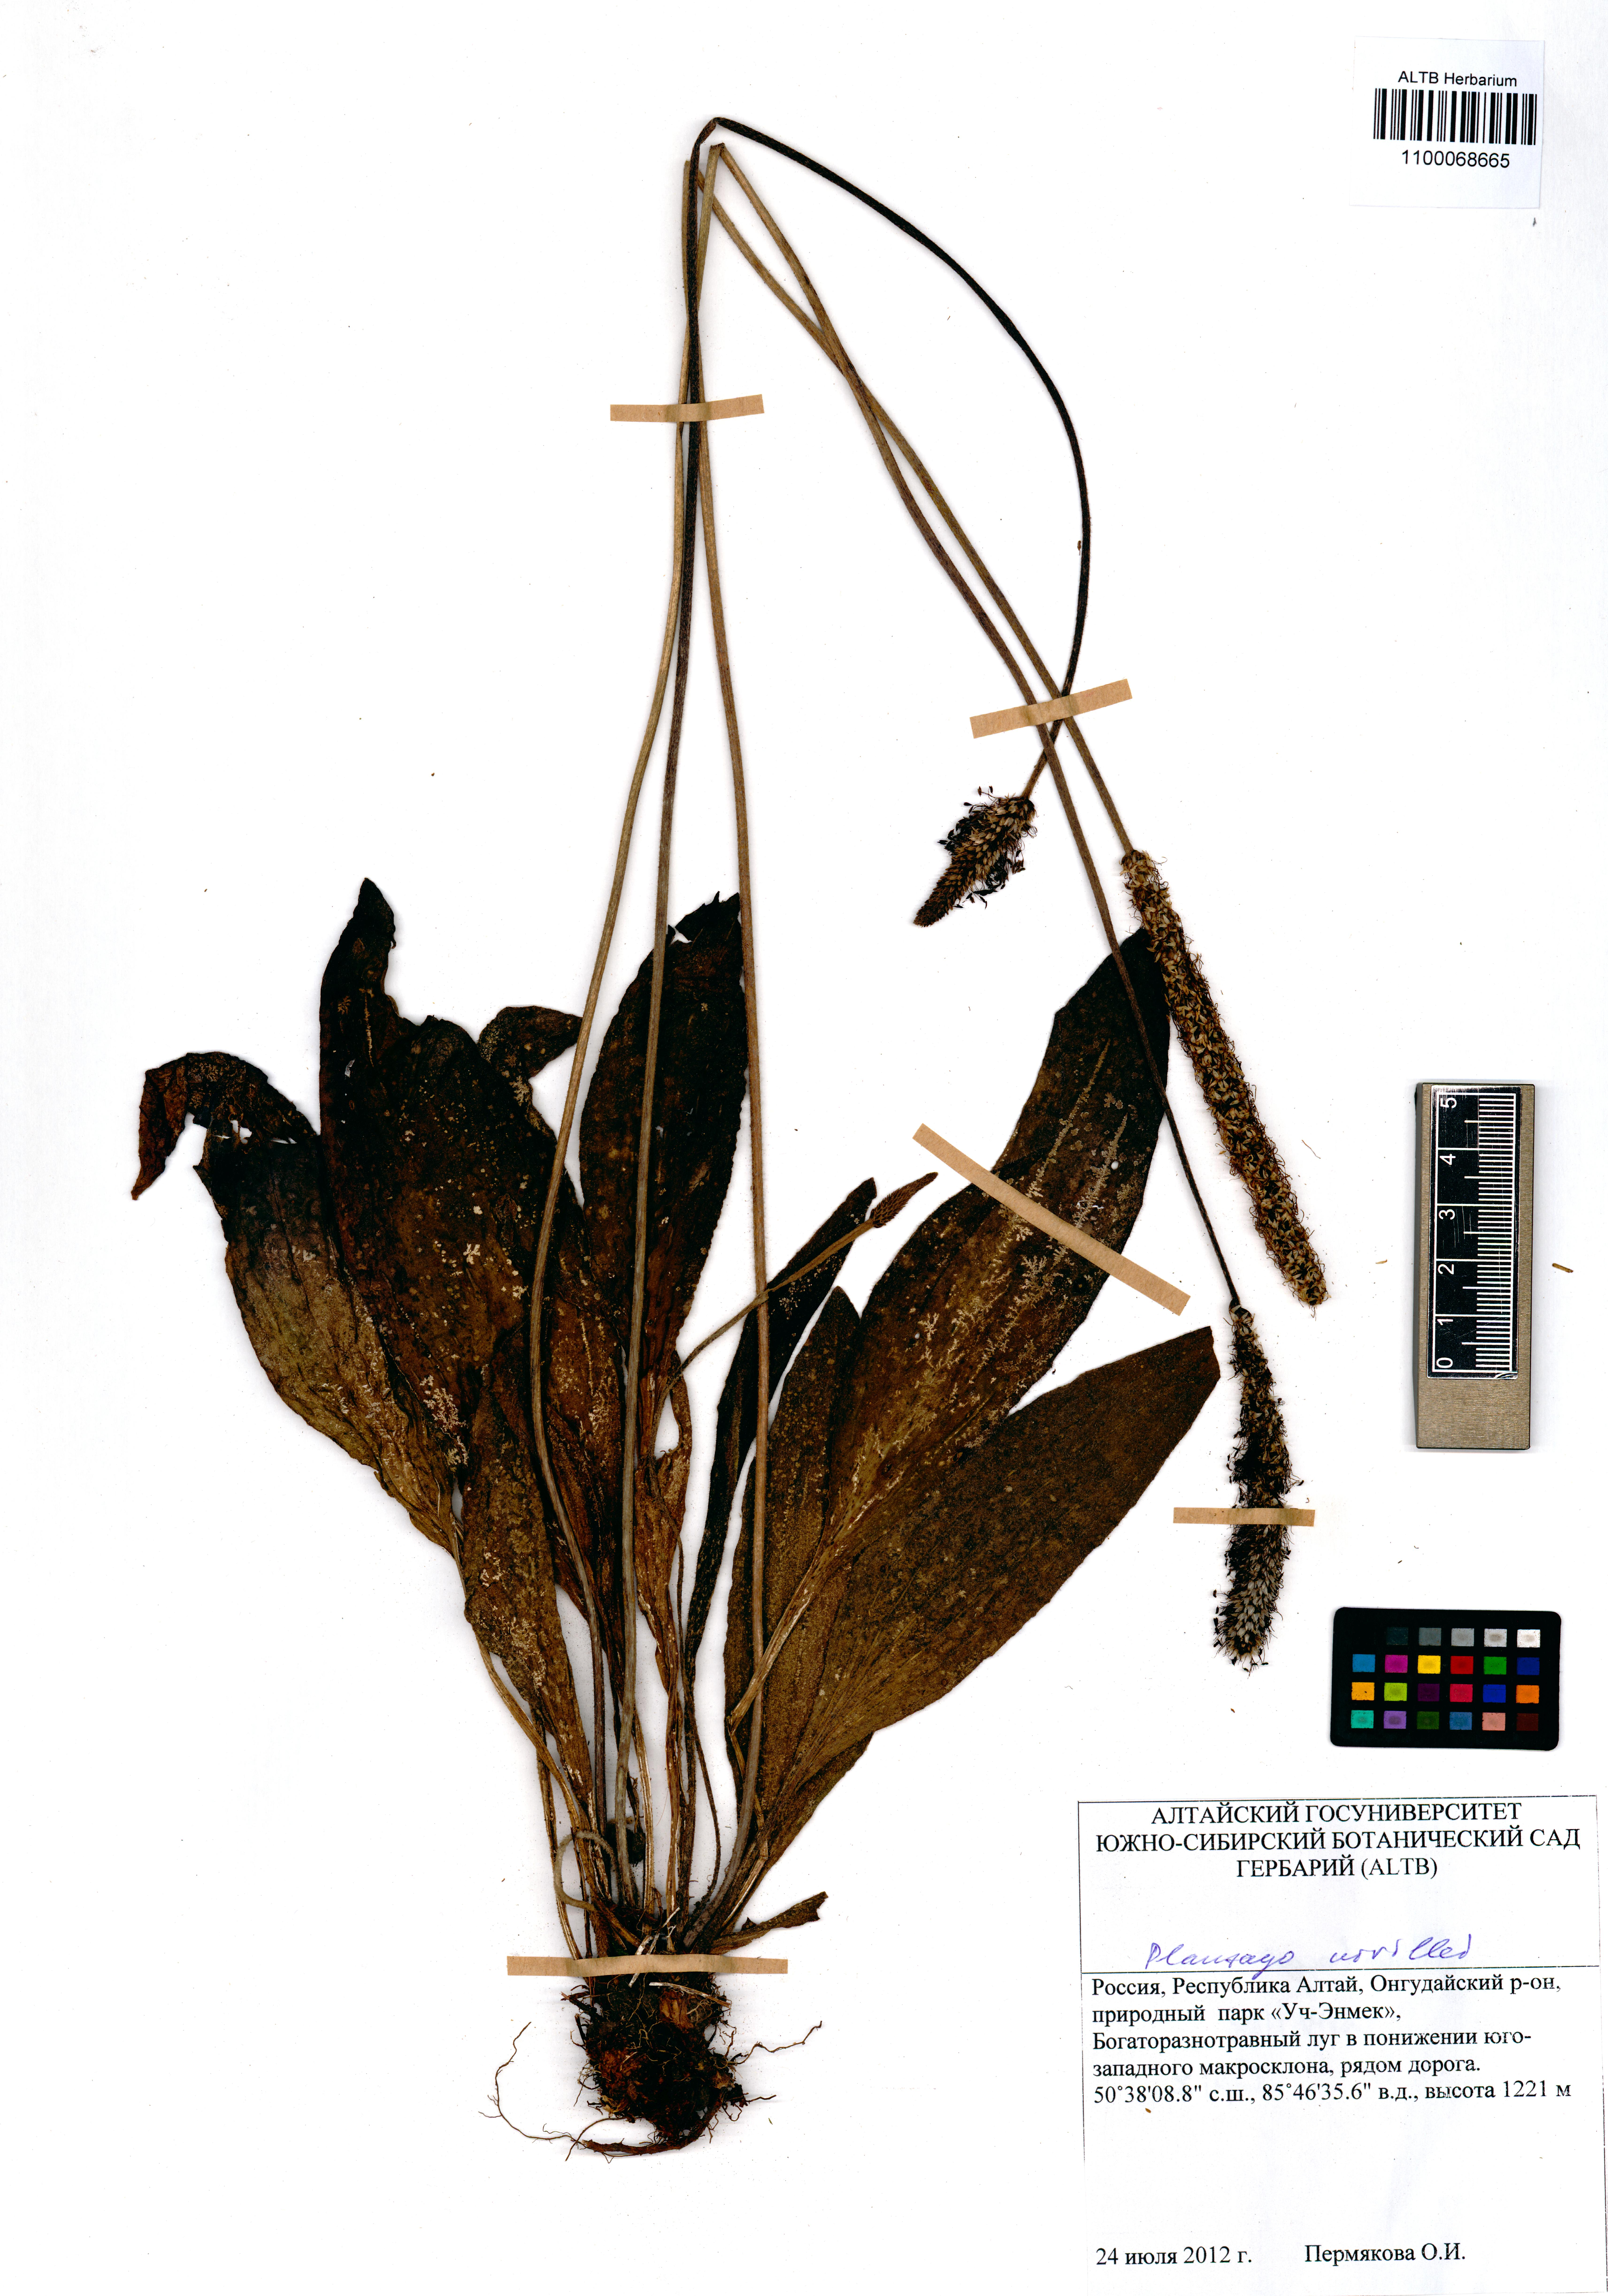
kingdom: Plantae
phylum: Tracheophyta
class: Magnoliopsida
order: Lamiales
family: Plantaginaceae
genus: Plantago
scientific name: Plantago urvillei
